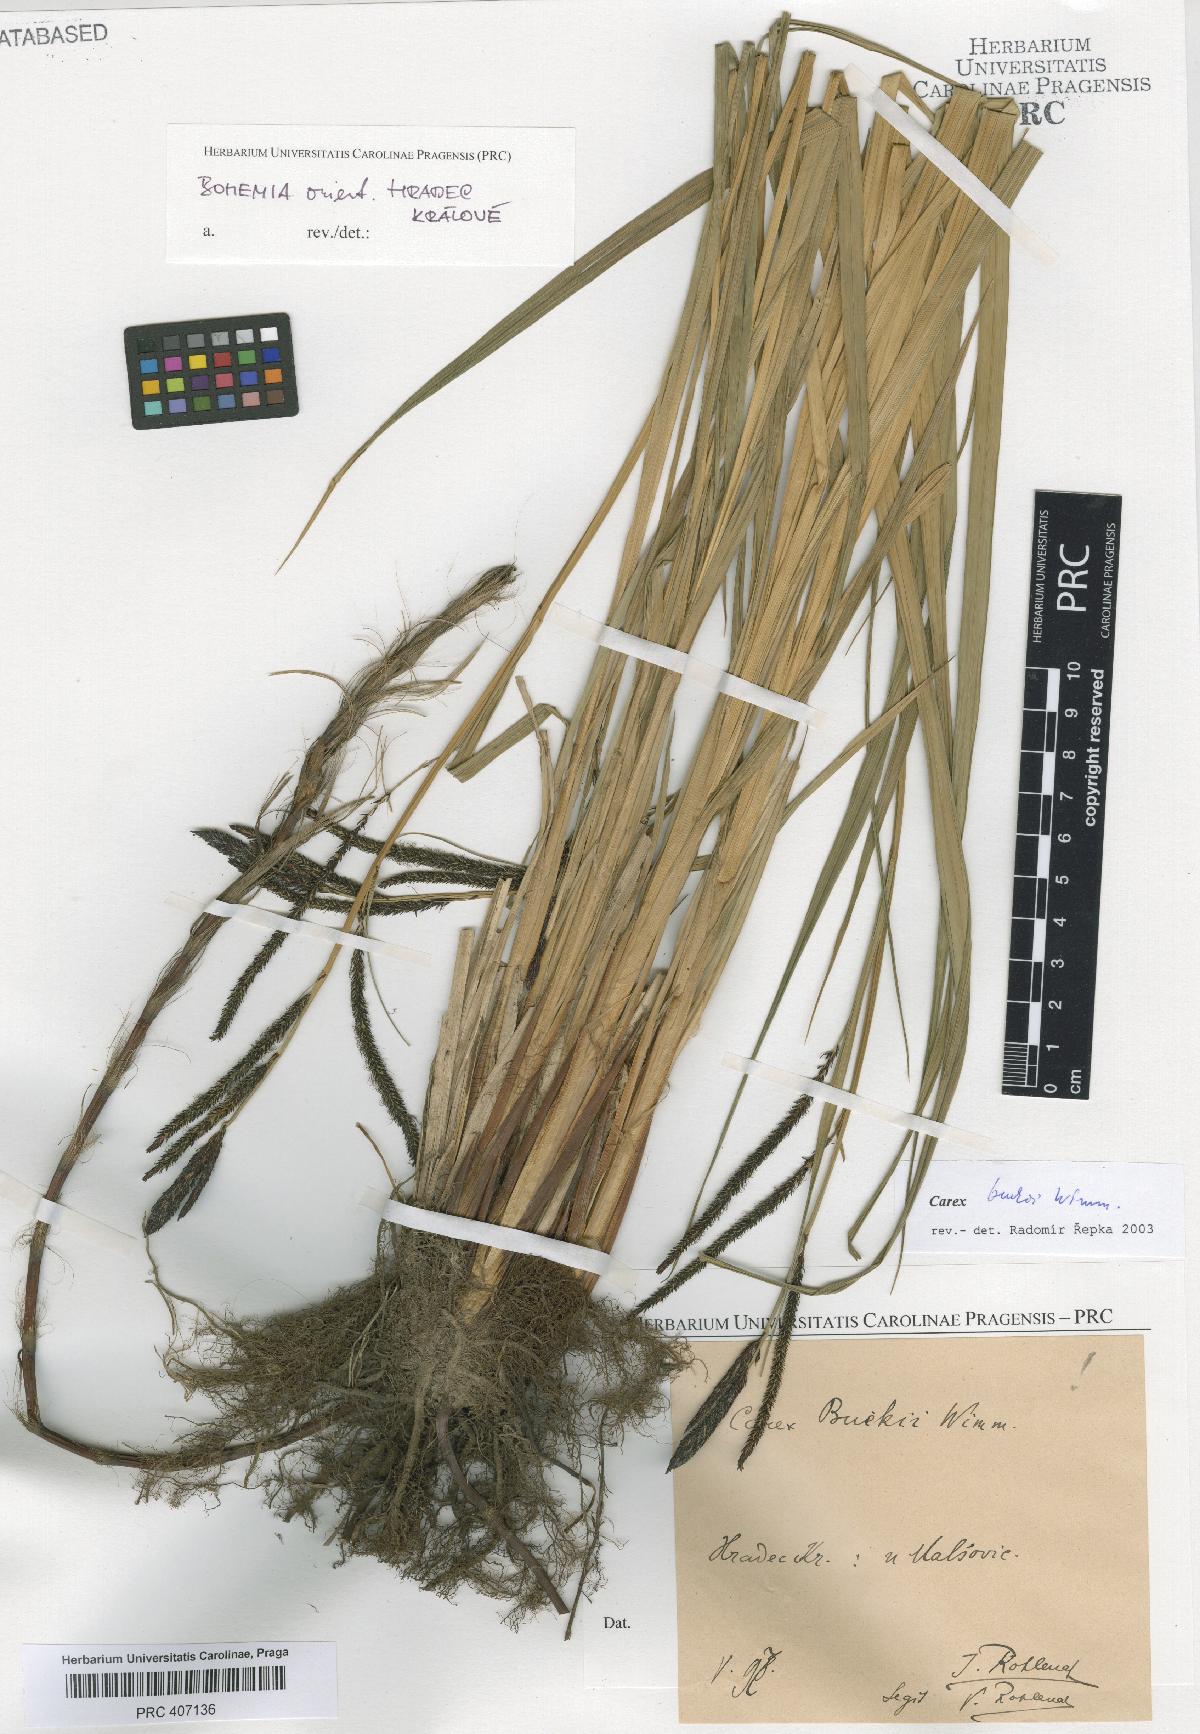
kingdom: Plantae
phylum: Tracheophyta
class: Liliopsida
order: Poales
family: Cyperaceae
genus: Carex
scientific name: Carex buekii
